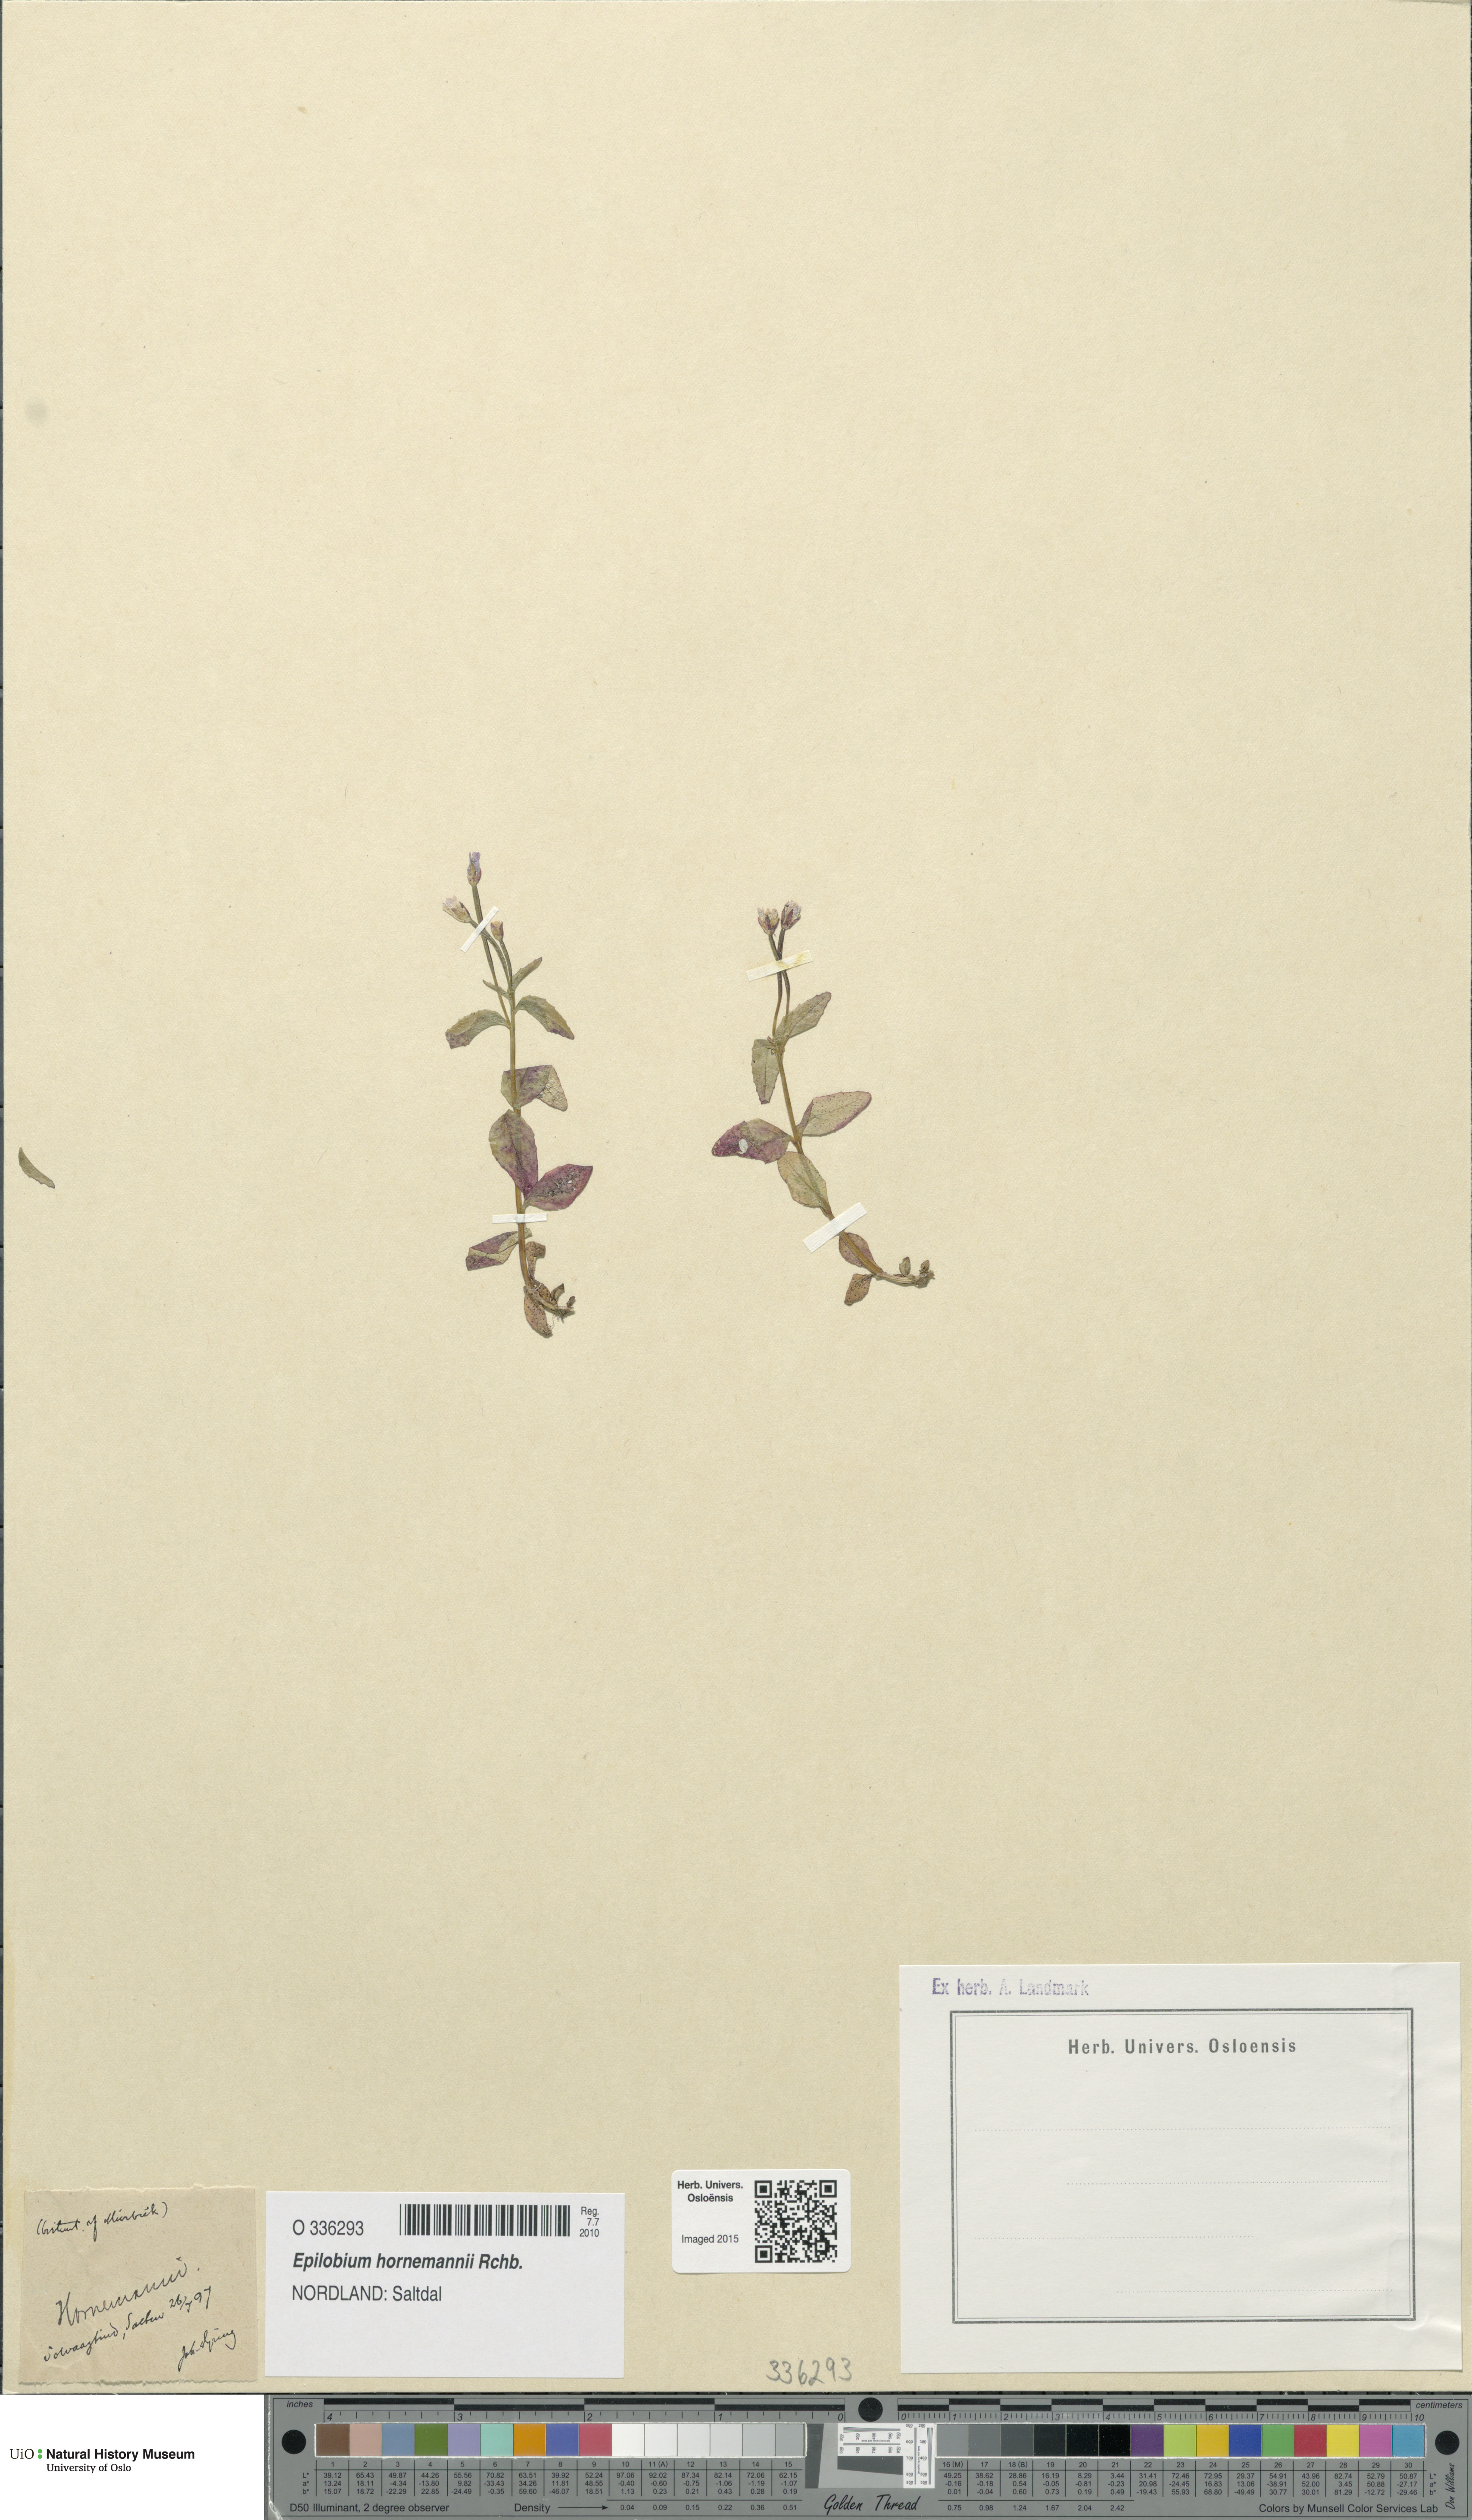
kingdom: Plantae
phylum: Tracheophyta
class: Magnoliopsida
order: Myrtales
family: Onagraceae
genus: Epilobium
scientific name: Epilobium hornemannii
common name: Hornemann's willowherb
